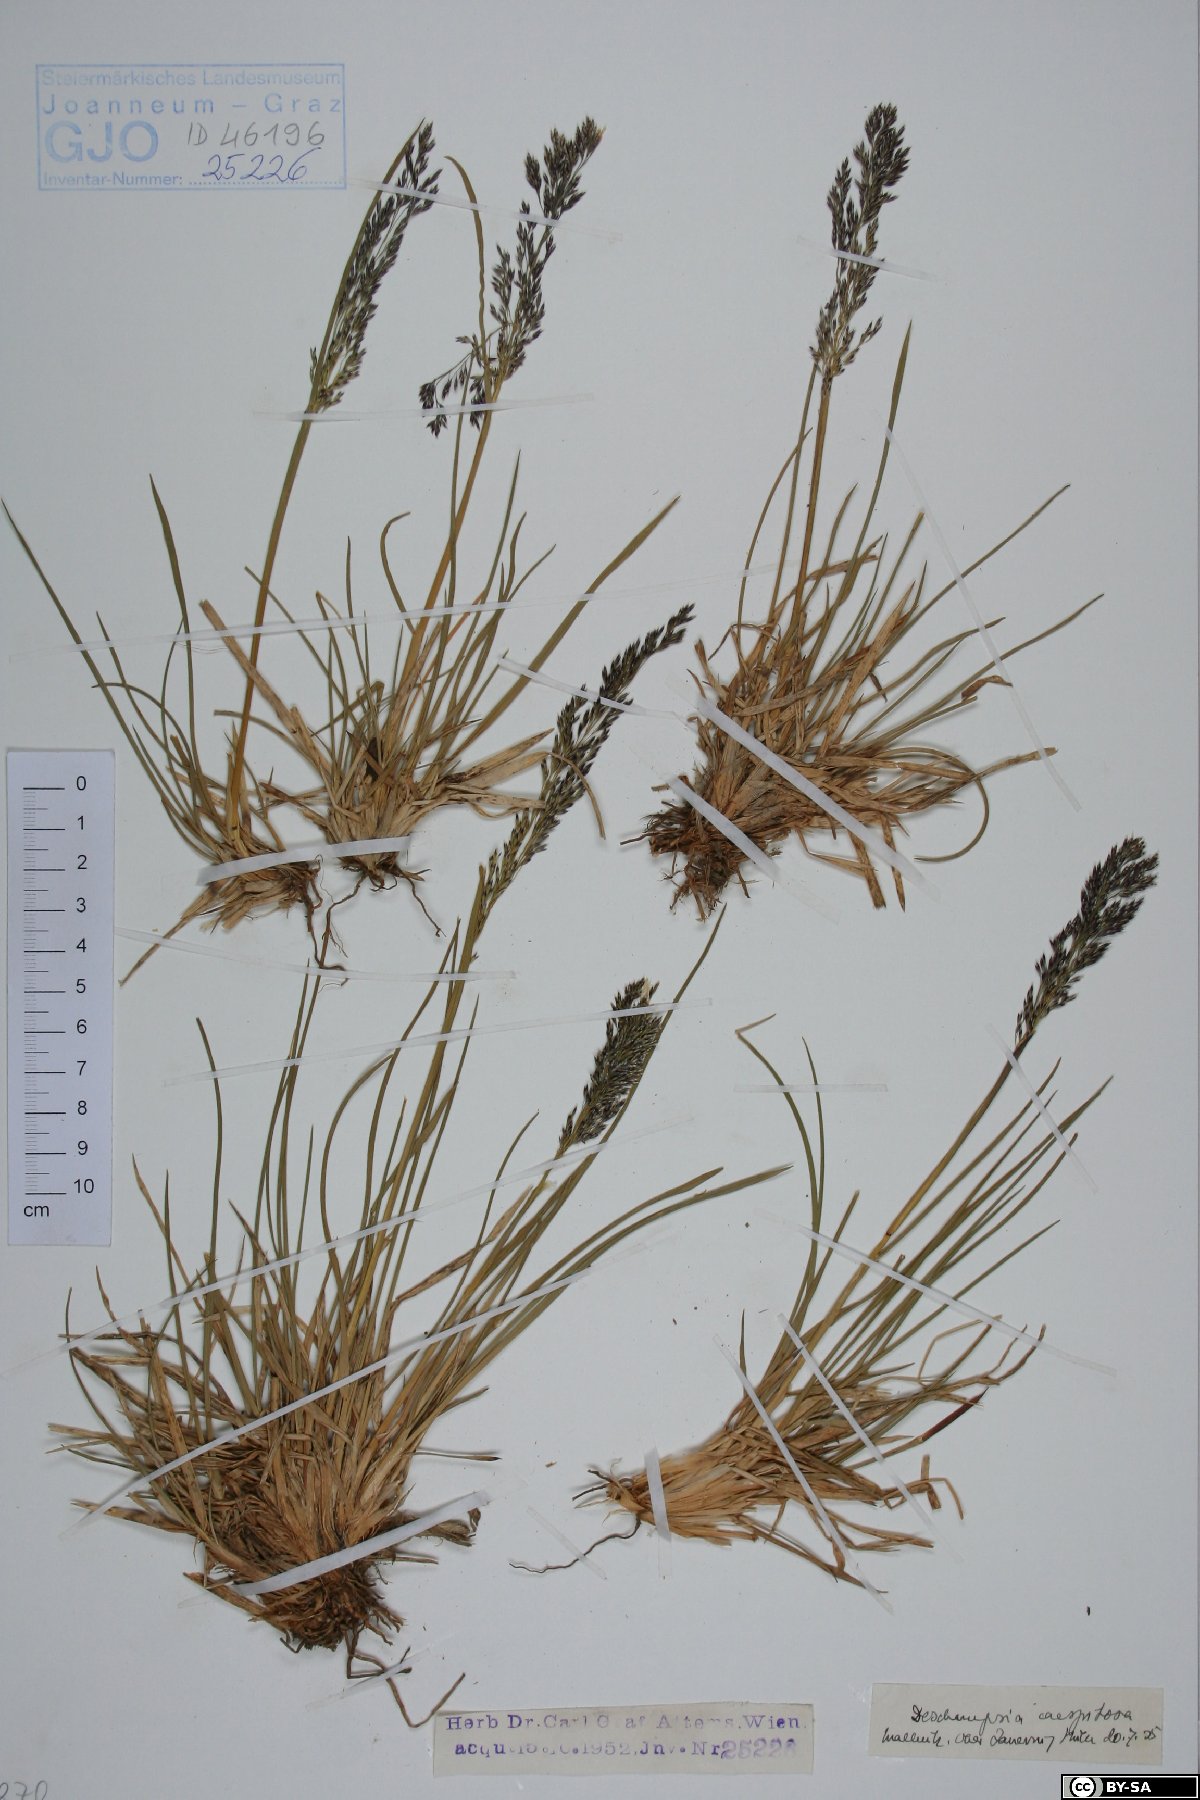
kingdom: Plantae
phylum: Tracheophyta
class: Liliopsida
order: Poales
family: Poaceae
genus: Deschampsia
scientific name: Deschampsia cespitosa
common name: Tufted hair-grass
